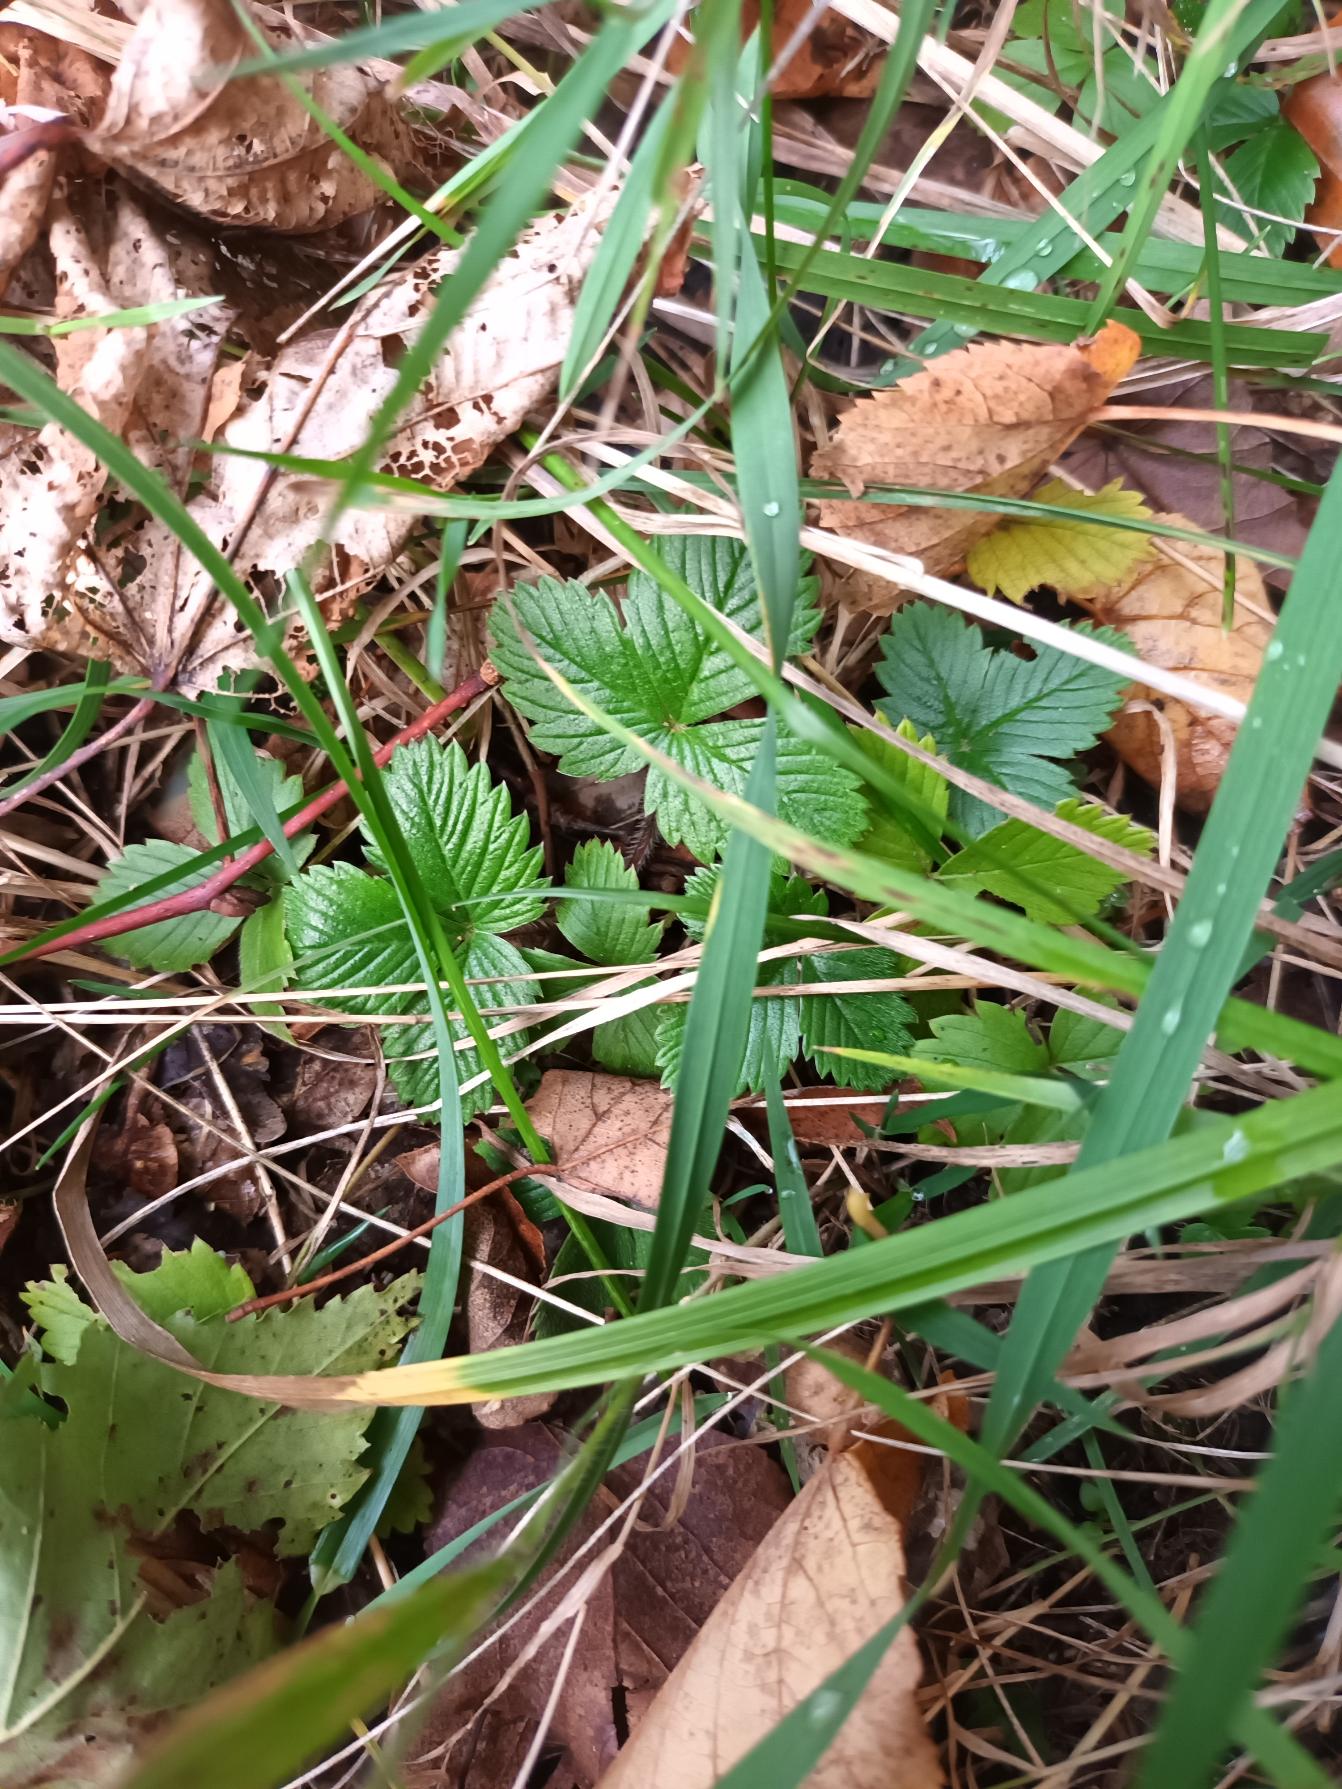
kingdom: Plantae
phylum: Tracheophyta
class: Magnoliopsida
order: Rosales
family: Rosaceae
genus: Fragaria
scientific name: Fragaria vesca
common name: Skov-jordbær
